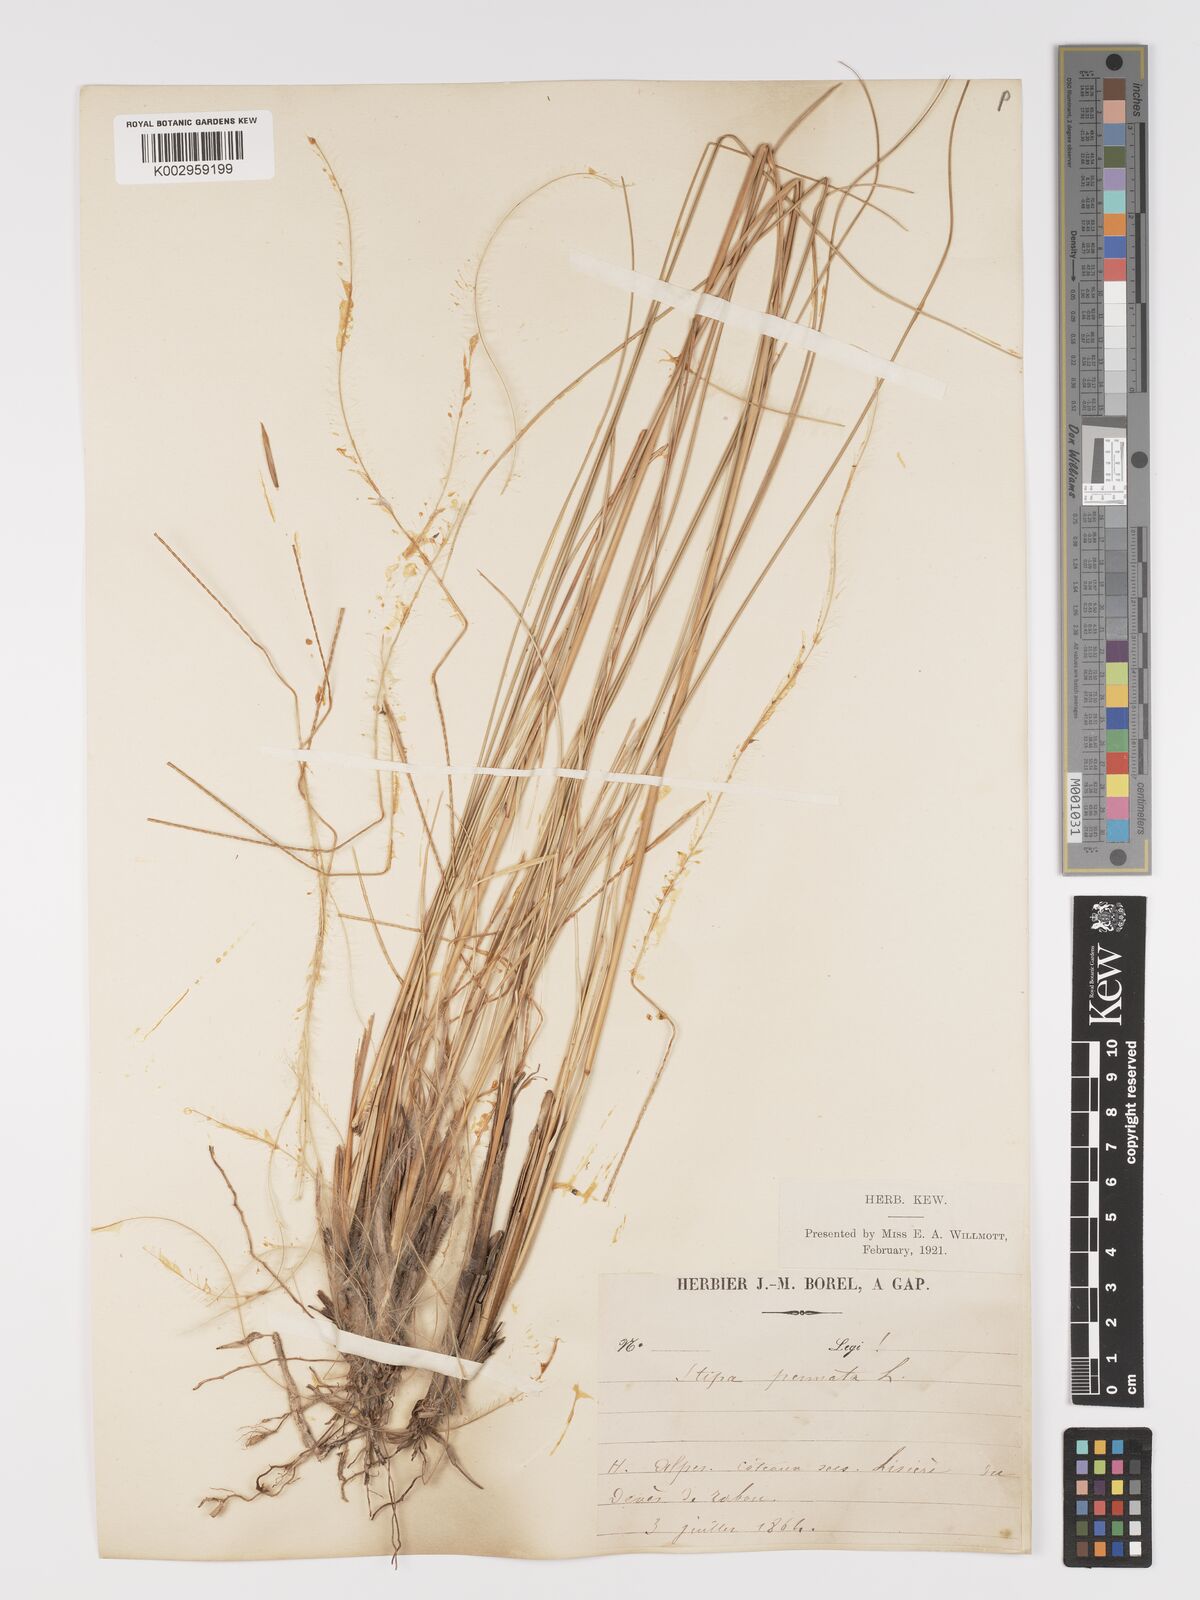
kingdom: Plantae
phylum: Tracheophyta
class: Liliopsida
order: Poales
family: Poaceae
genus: Stipa
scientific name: Stipa pennata
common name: European feather grass
